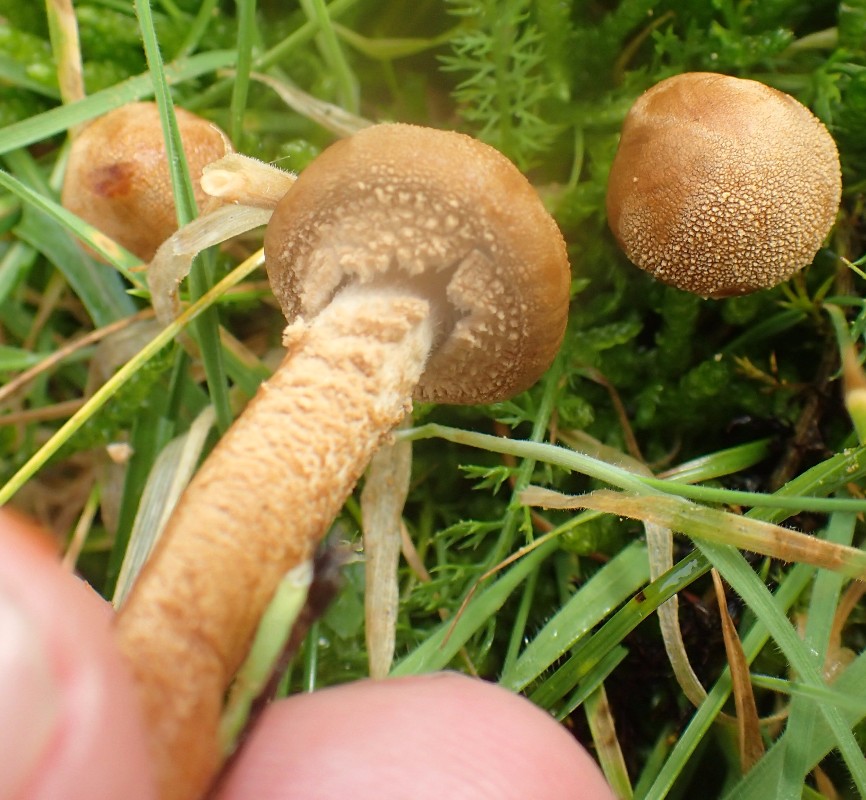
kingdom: Fungi
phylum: Basidiomycota
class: Agaricomycetes
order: Agaricales
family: Tricholomataceae
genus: Cystoderma
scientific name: Cystoderma amianthinum
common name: okkergul grynhat
